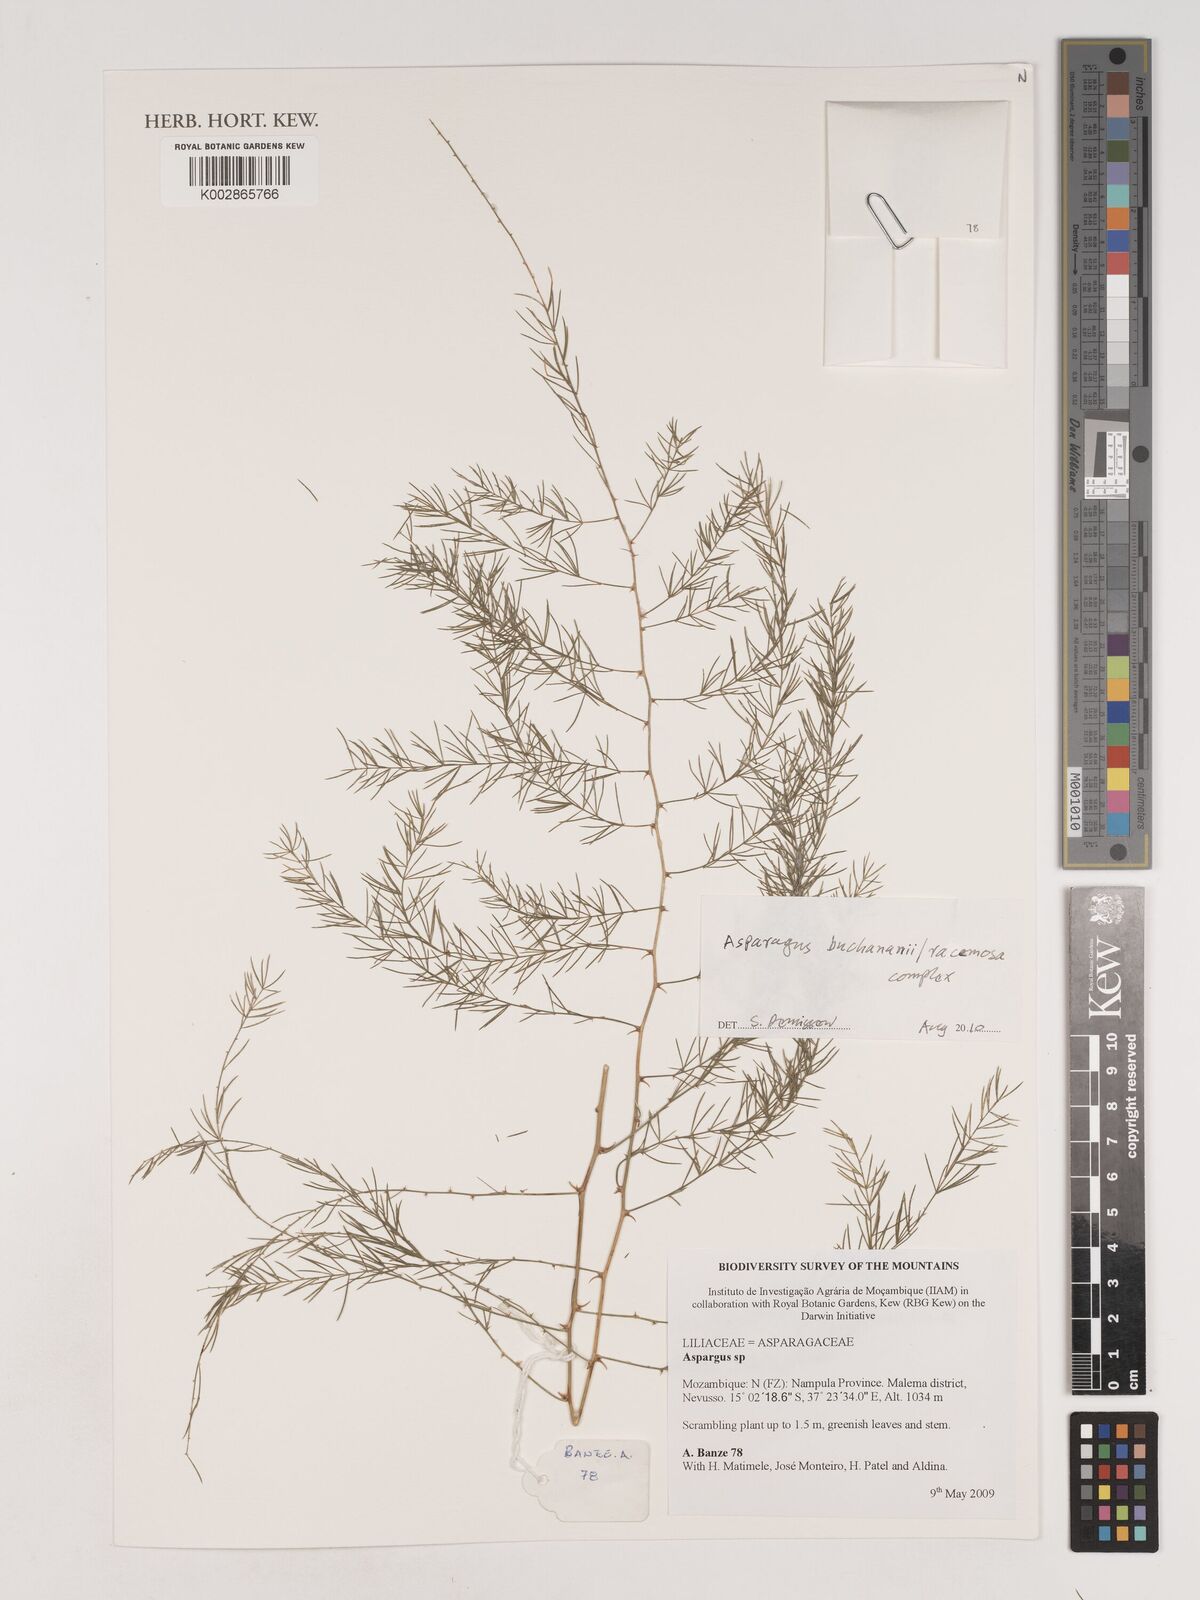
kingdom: Plantae
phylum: Tracheophyta
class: Liliopsida
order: Asparagales
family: Asparagaceae
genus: Asparagus
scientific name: Asparagus buchananii
